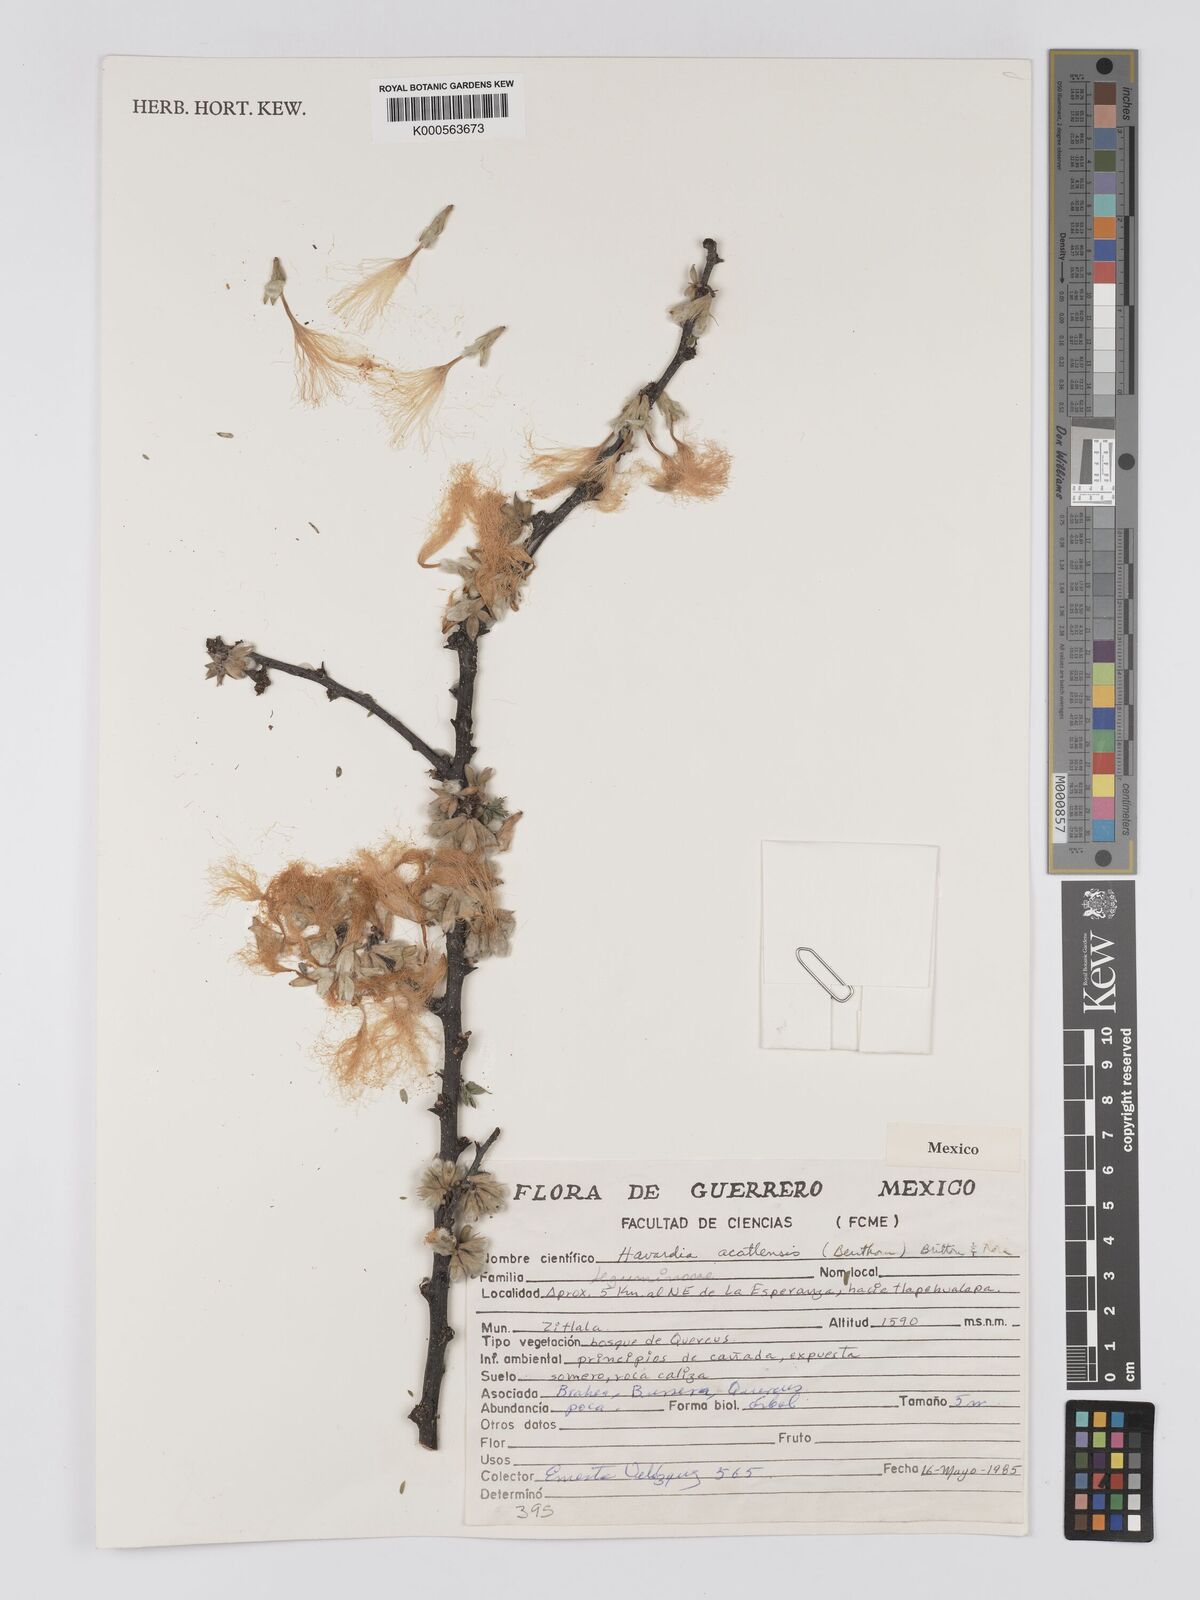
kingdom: Plantae
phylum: Tracheophyta
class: Magnoliopsida
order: Fabales
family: Fabaceae
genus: Havardia
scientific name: Havardia acatlensis
